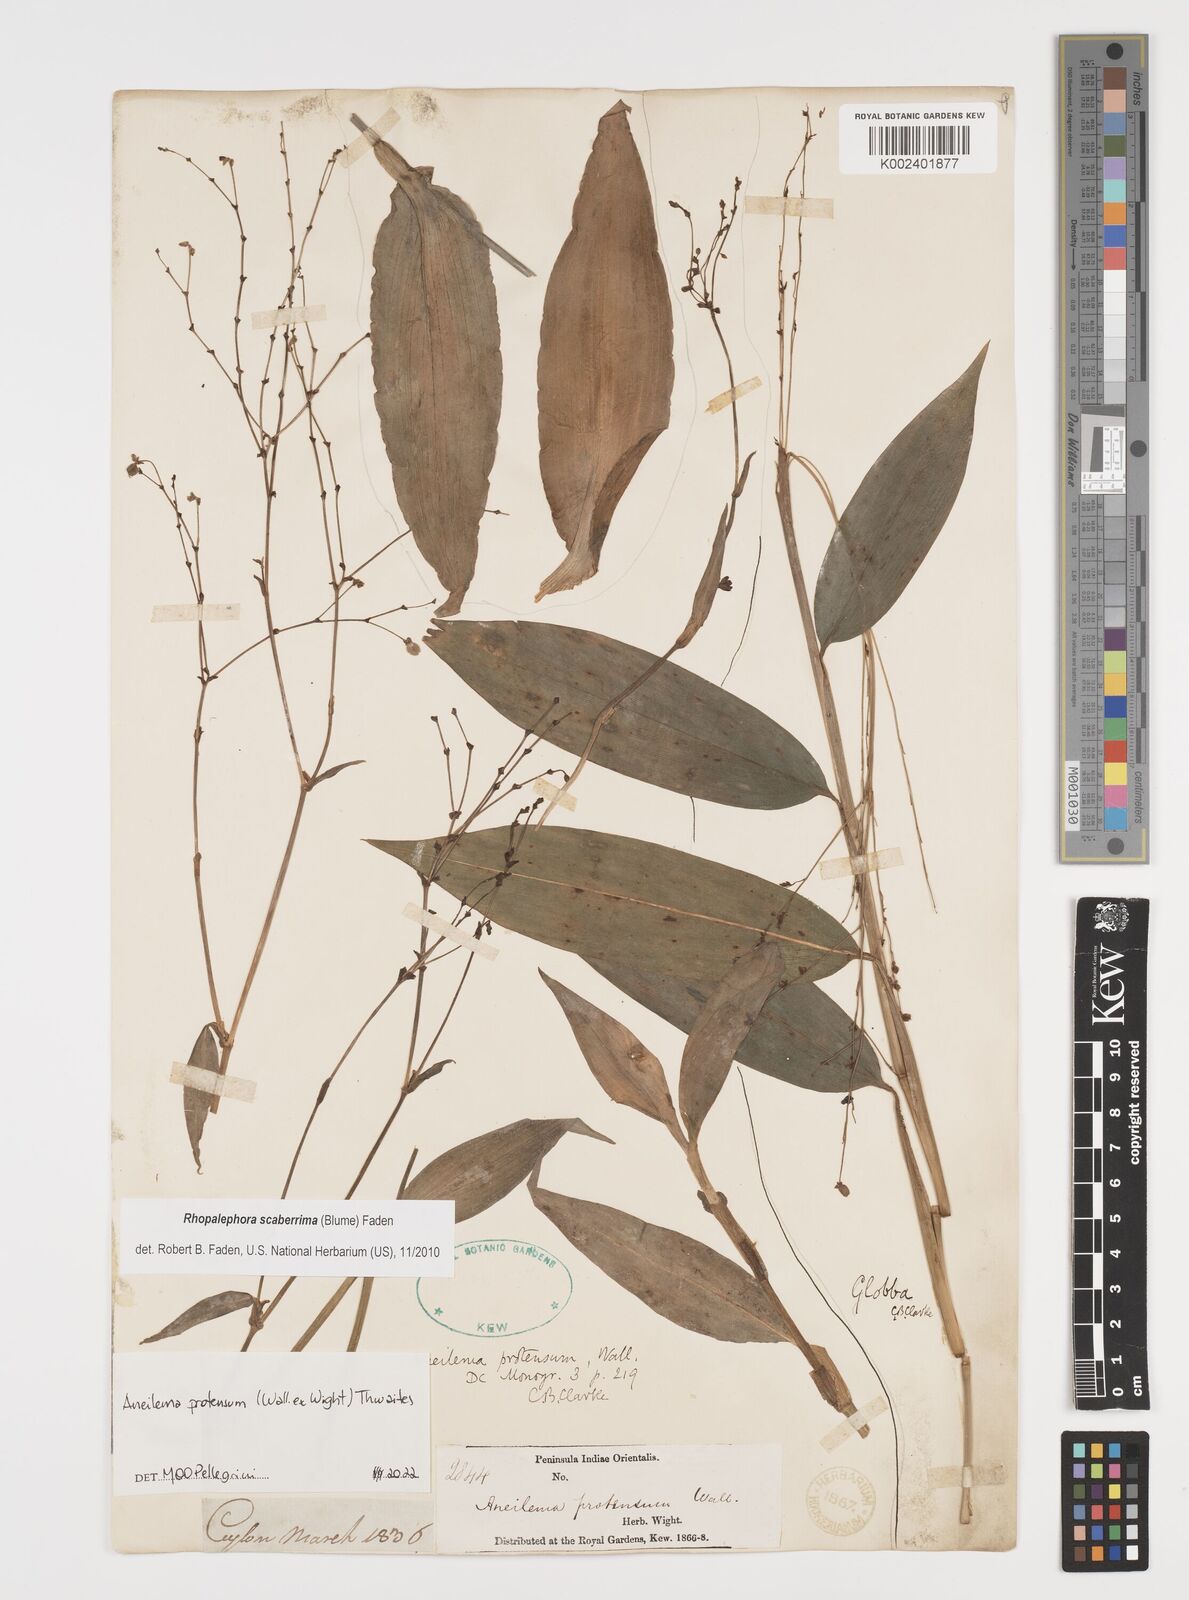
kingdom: Plantae
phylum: Tracheophyta
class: Liliopsida
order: Commelinales
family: Commelinaceae
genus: Rhopalephora
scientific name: Rhopalephora
